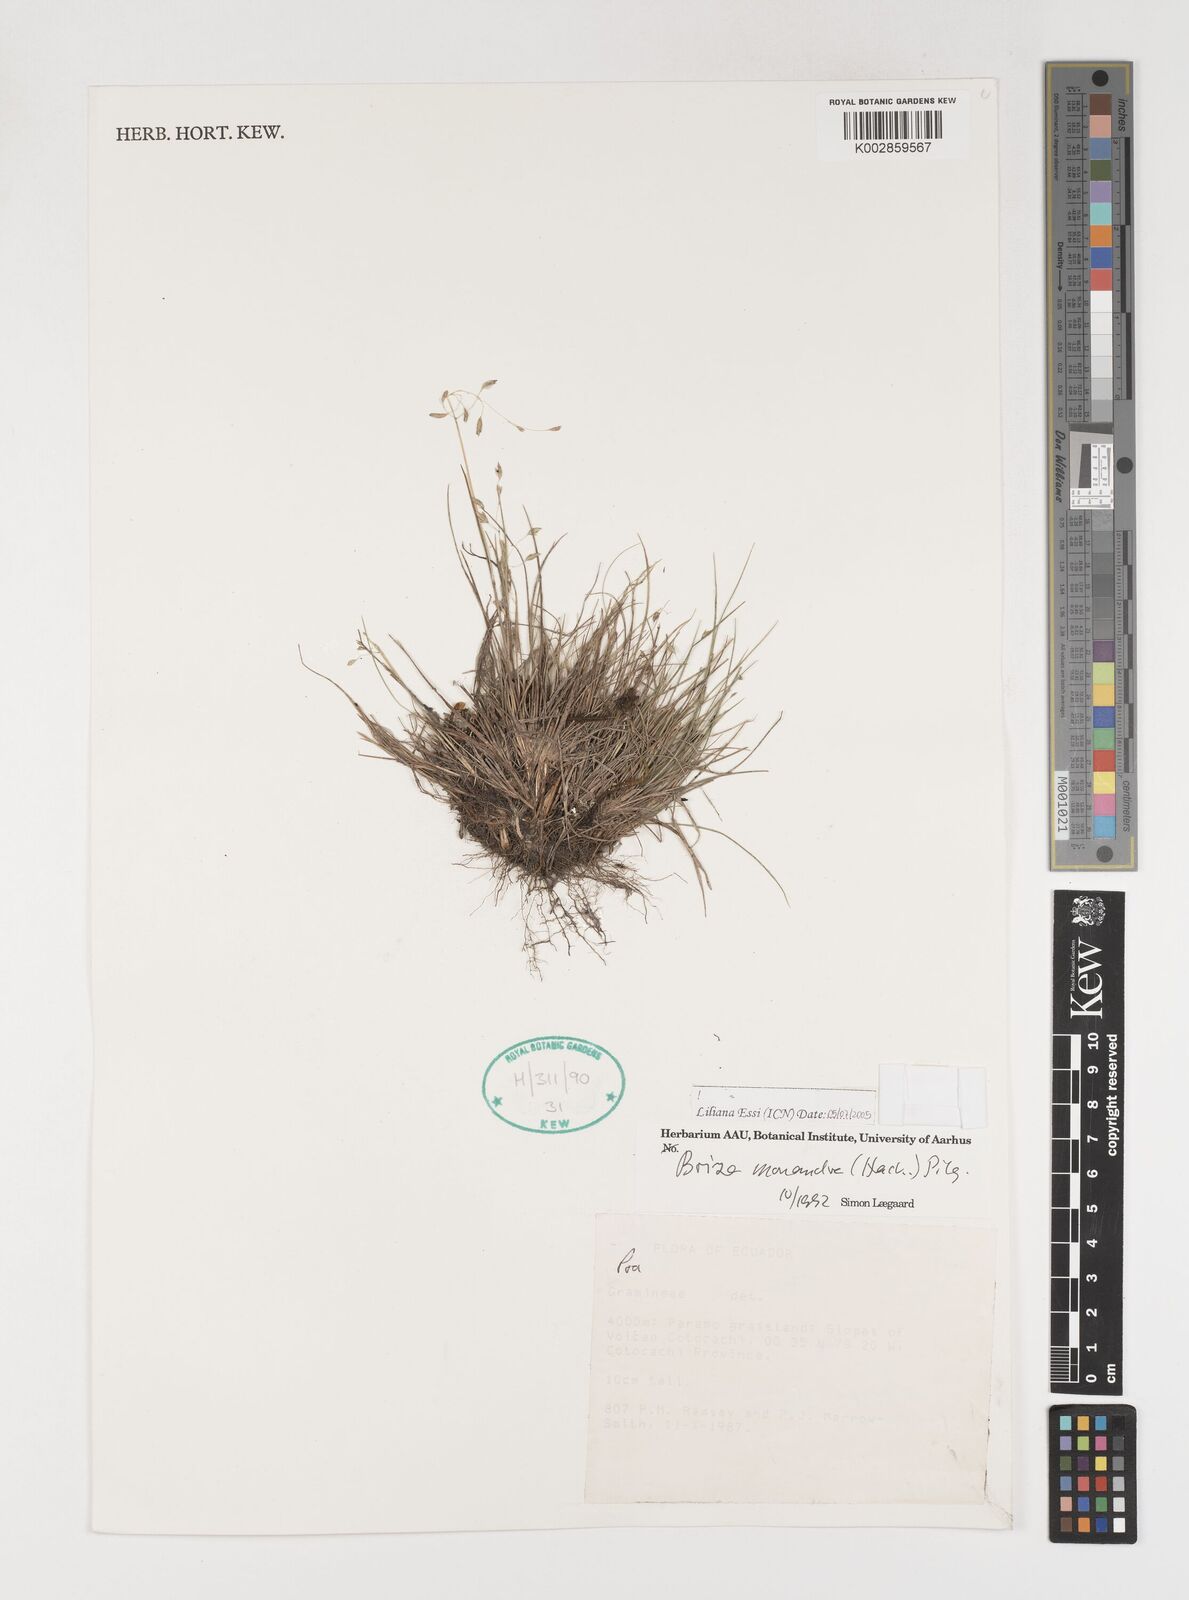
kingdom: Plantae
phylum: Tracheophyta
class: Liliopsida
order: Poales
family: Poaceae
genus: Poidium
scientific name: Poidium monandrum
